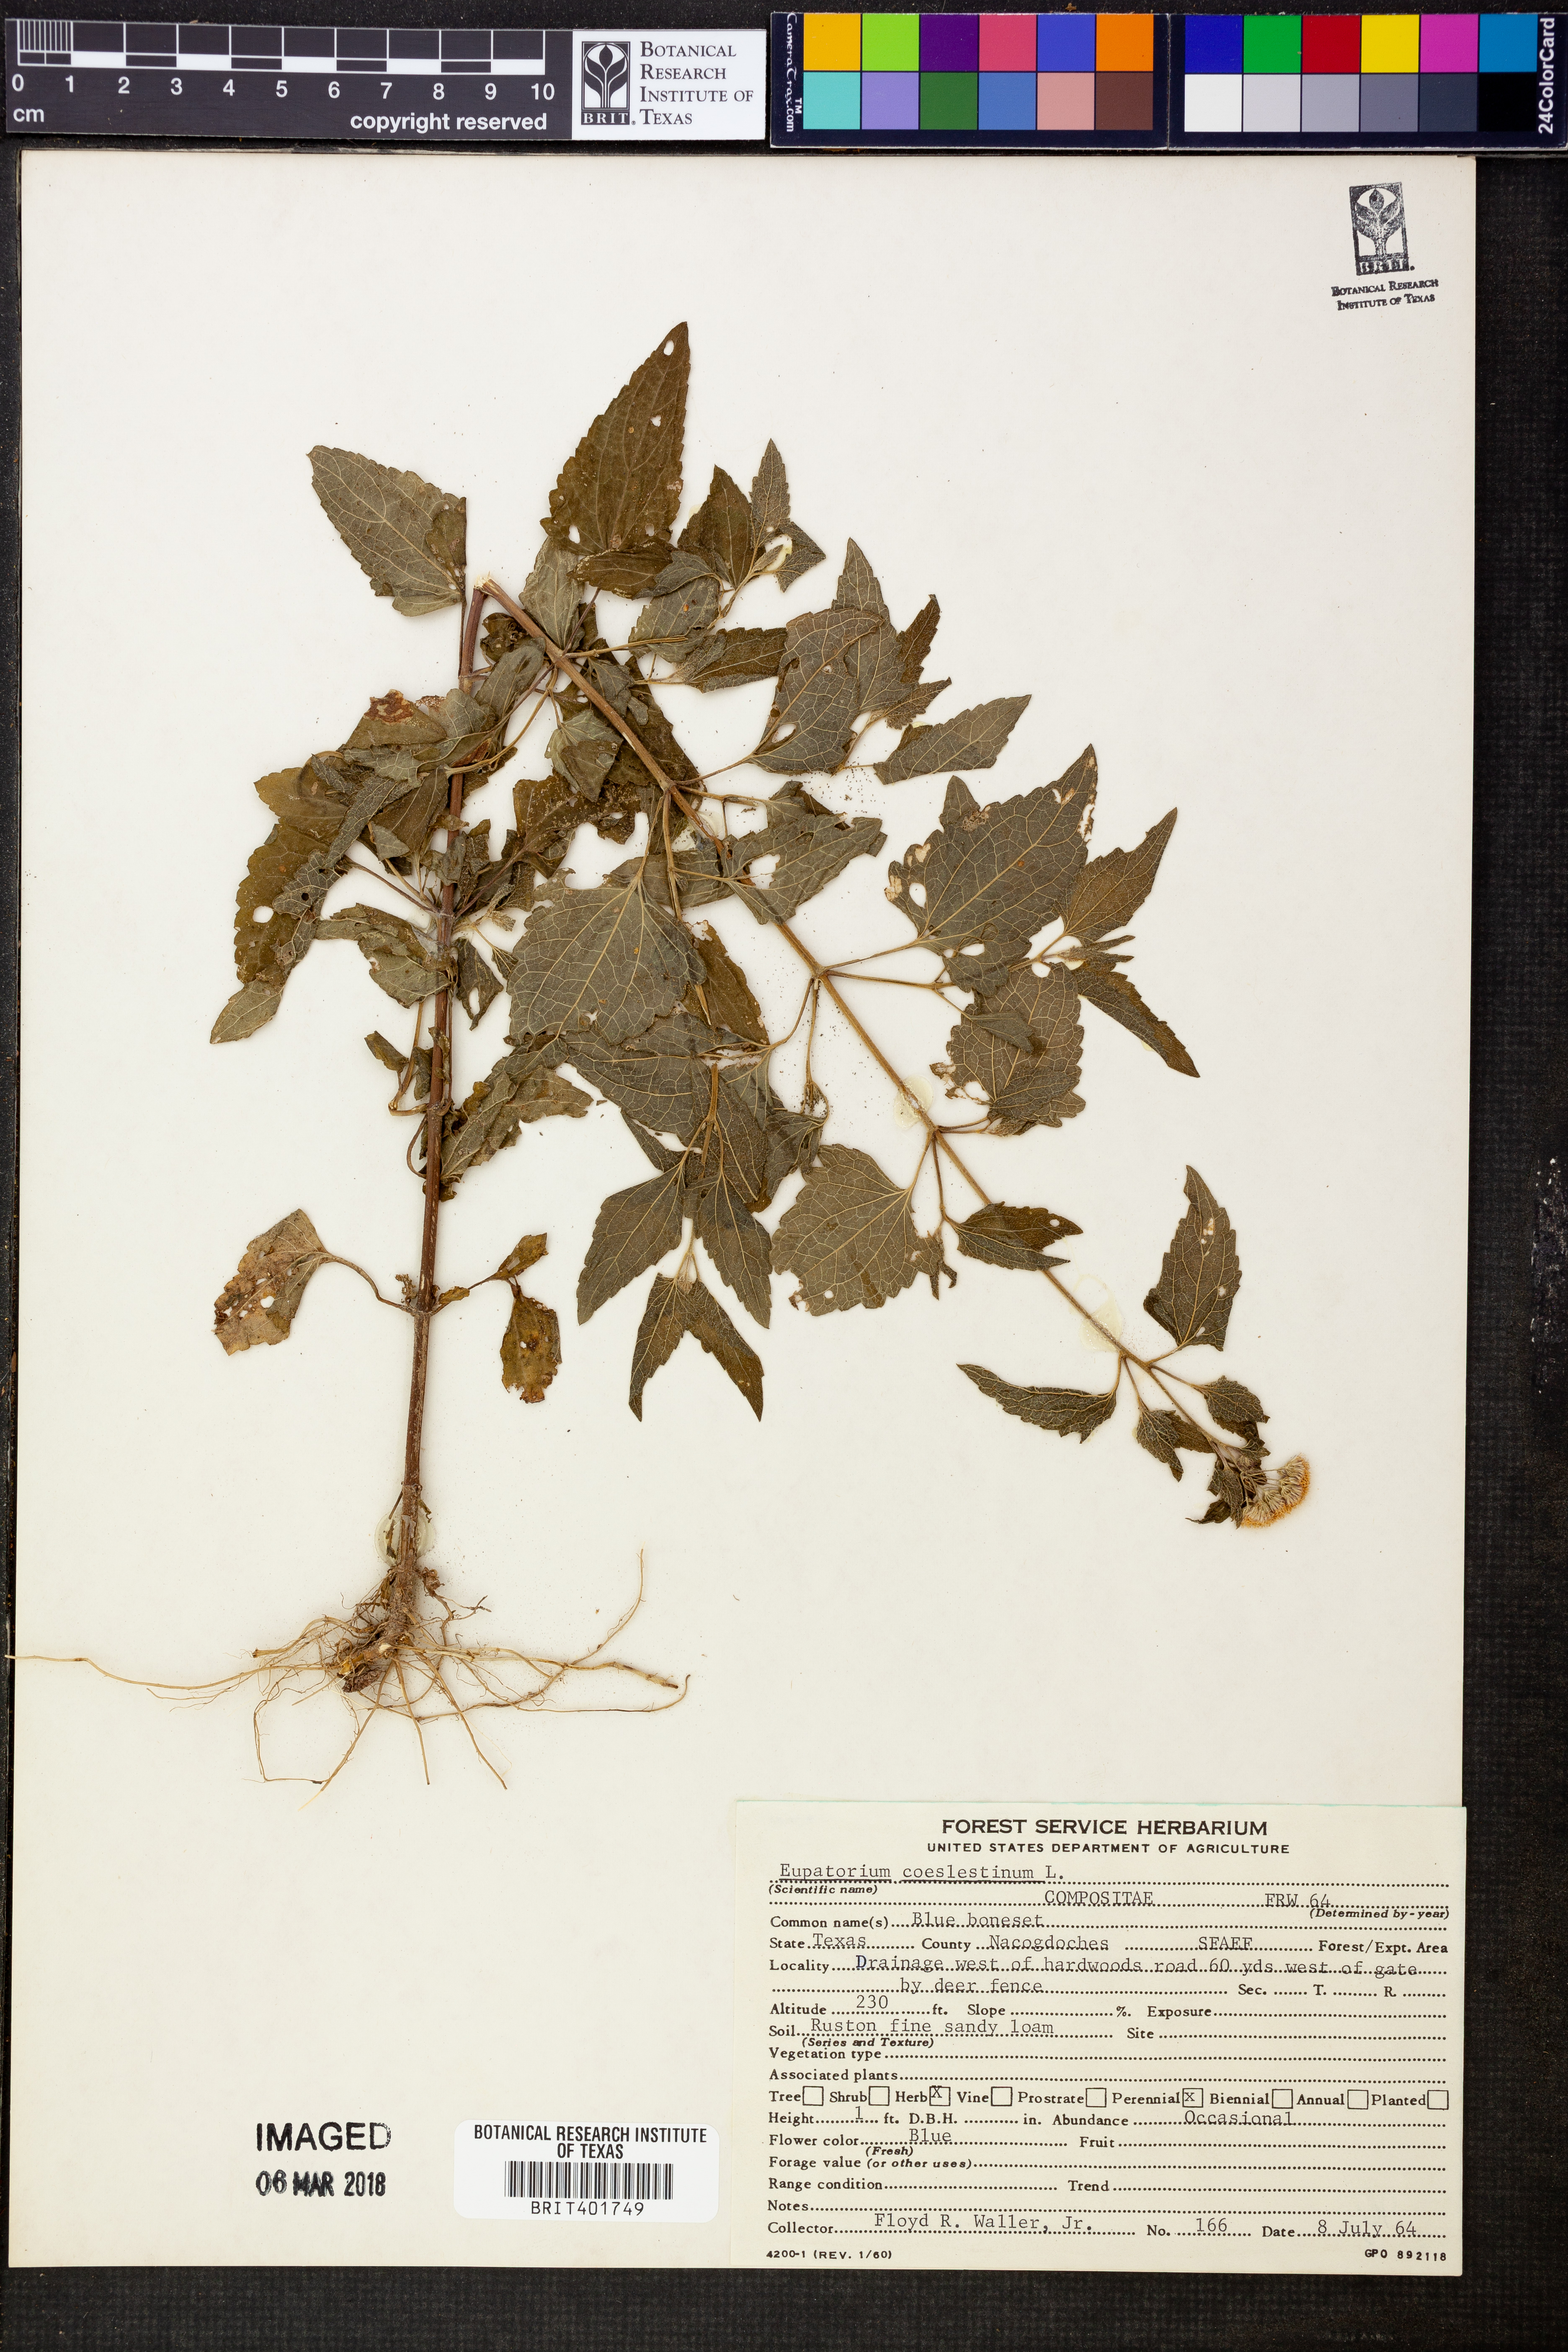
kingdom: Plantae
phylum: Tracheophyta
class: Magnoliopsida
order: Asterales
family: Asteraceae
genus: Conoclinium
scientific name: Conoclinium coelestinum
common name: Blue mistflower
